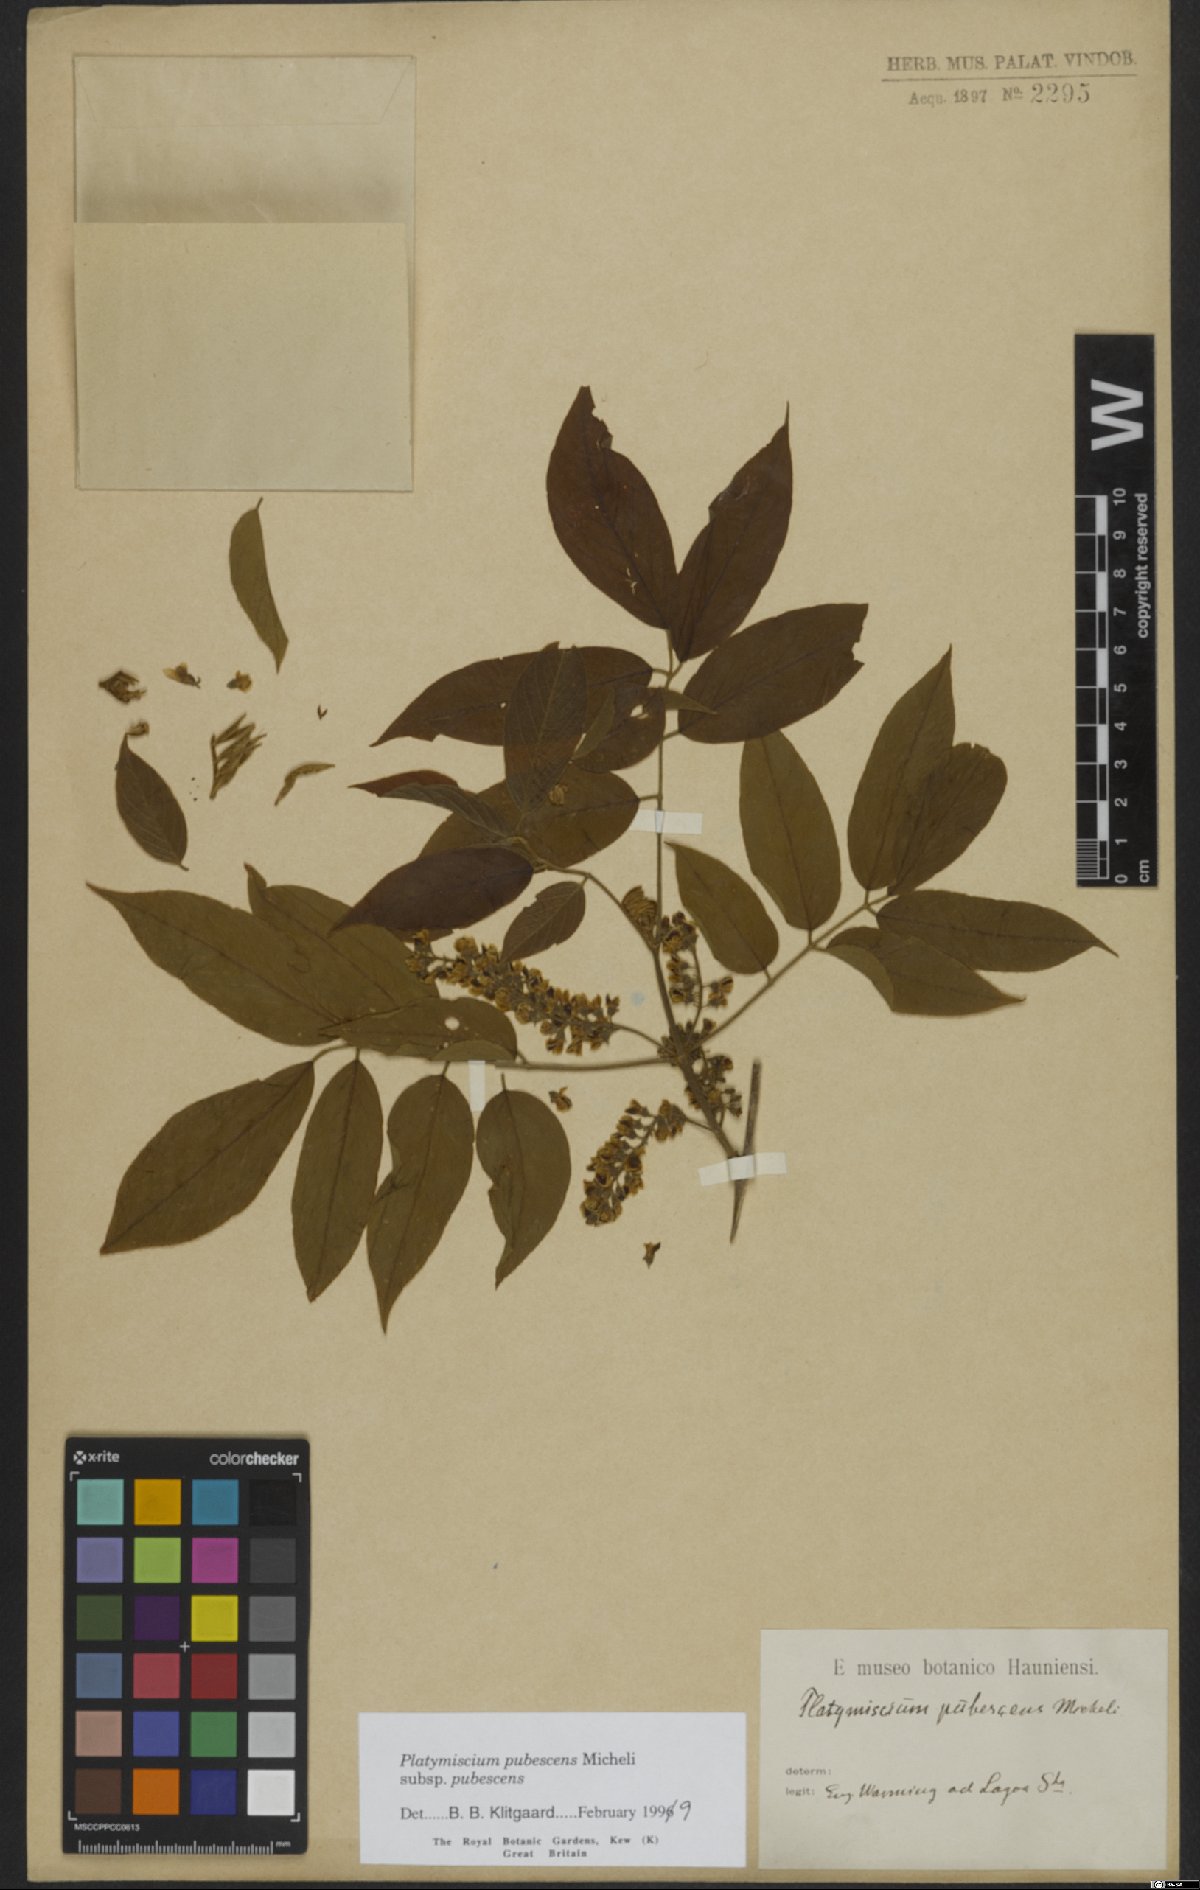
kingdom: Plantae
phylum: Tracheophyta
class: Magnoliopsida
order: Fabales
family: Fabaceae
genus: Platymiscium
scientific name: Platymiscium pubescens
